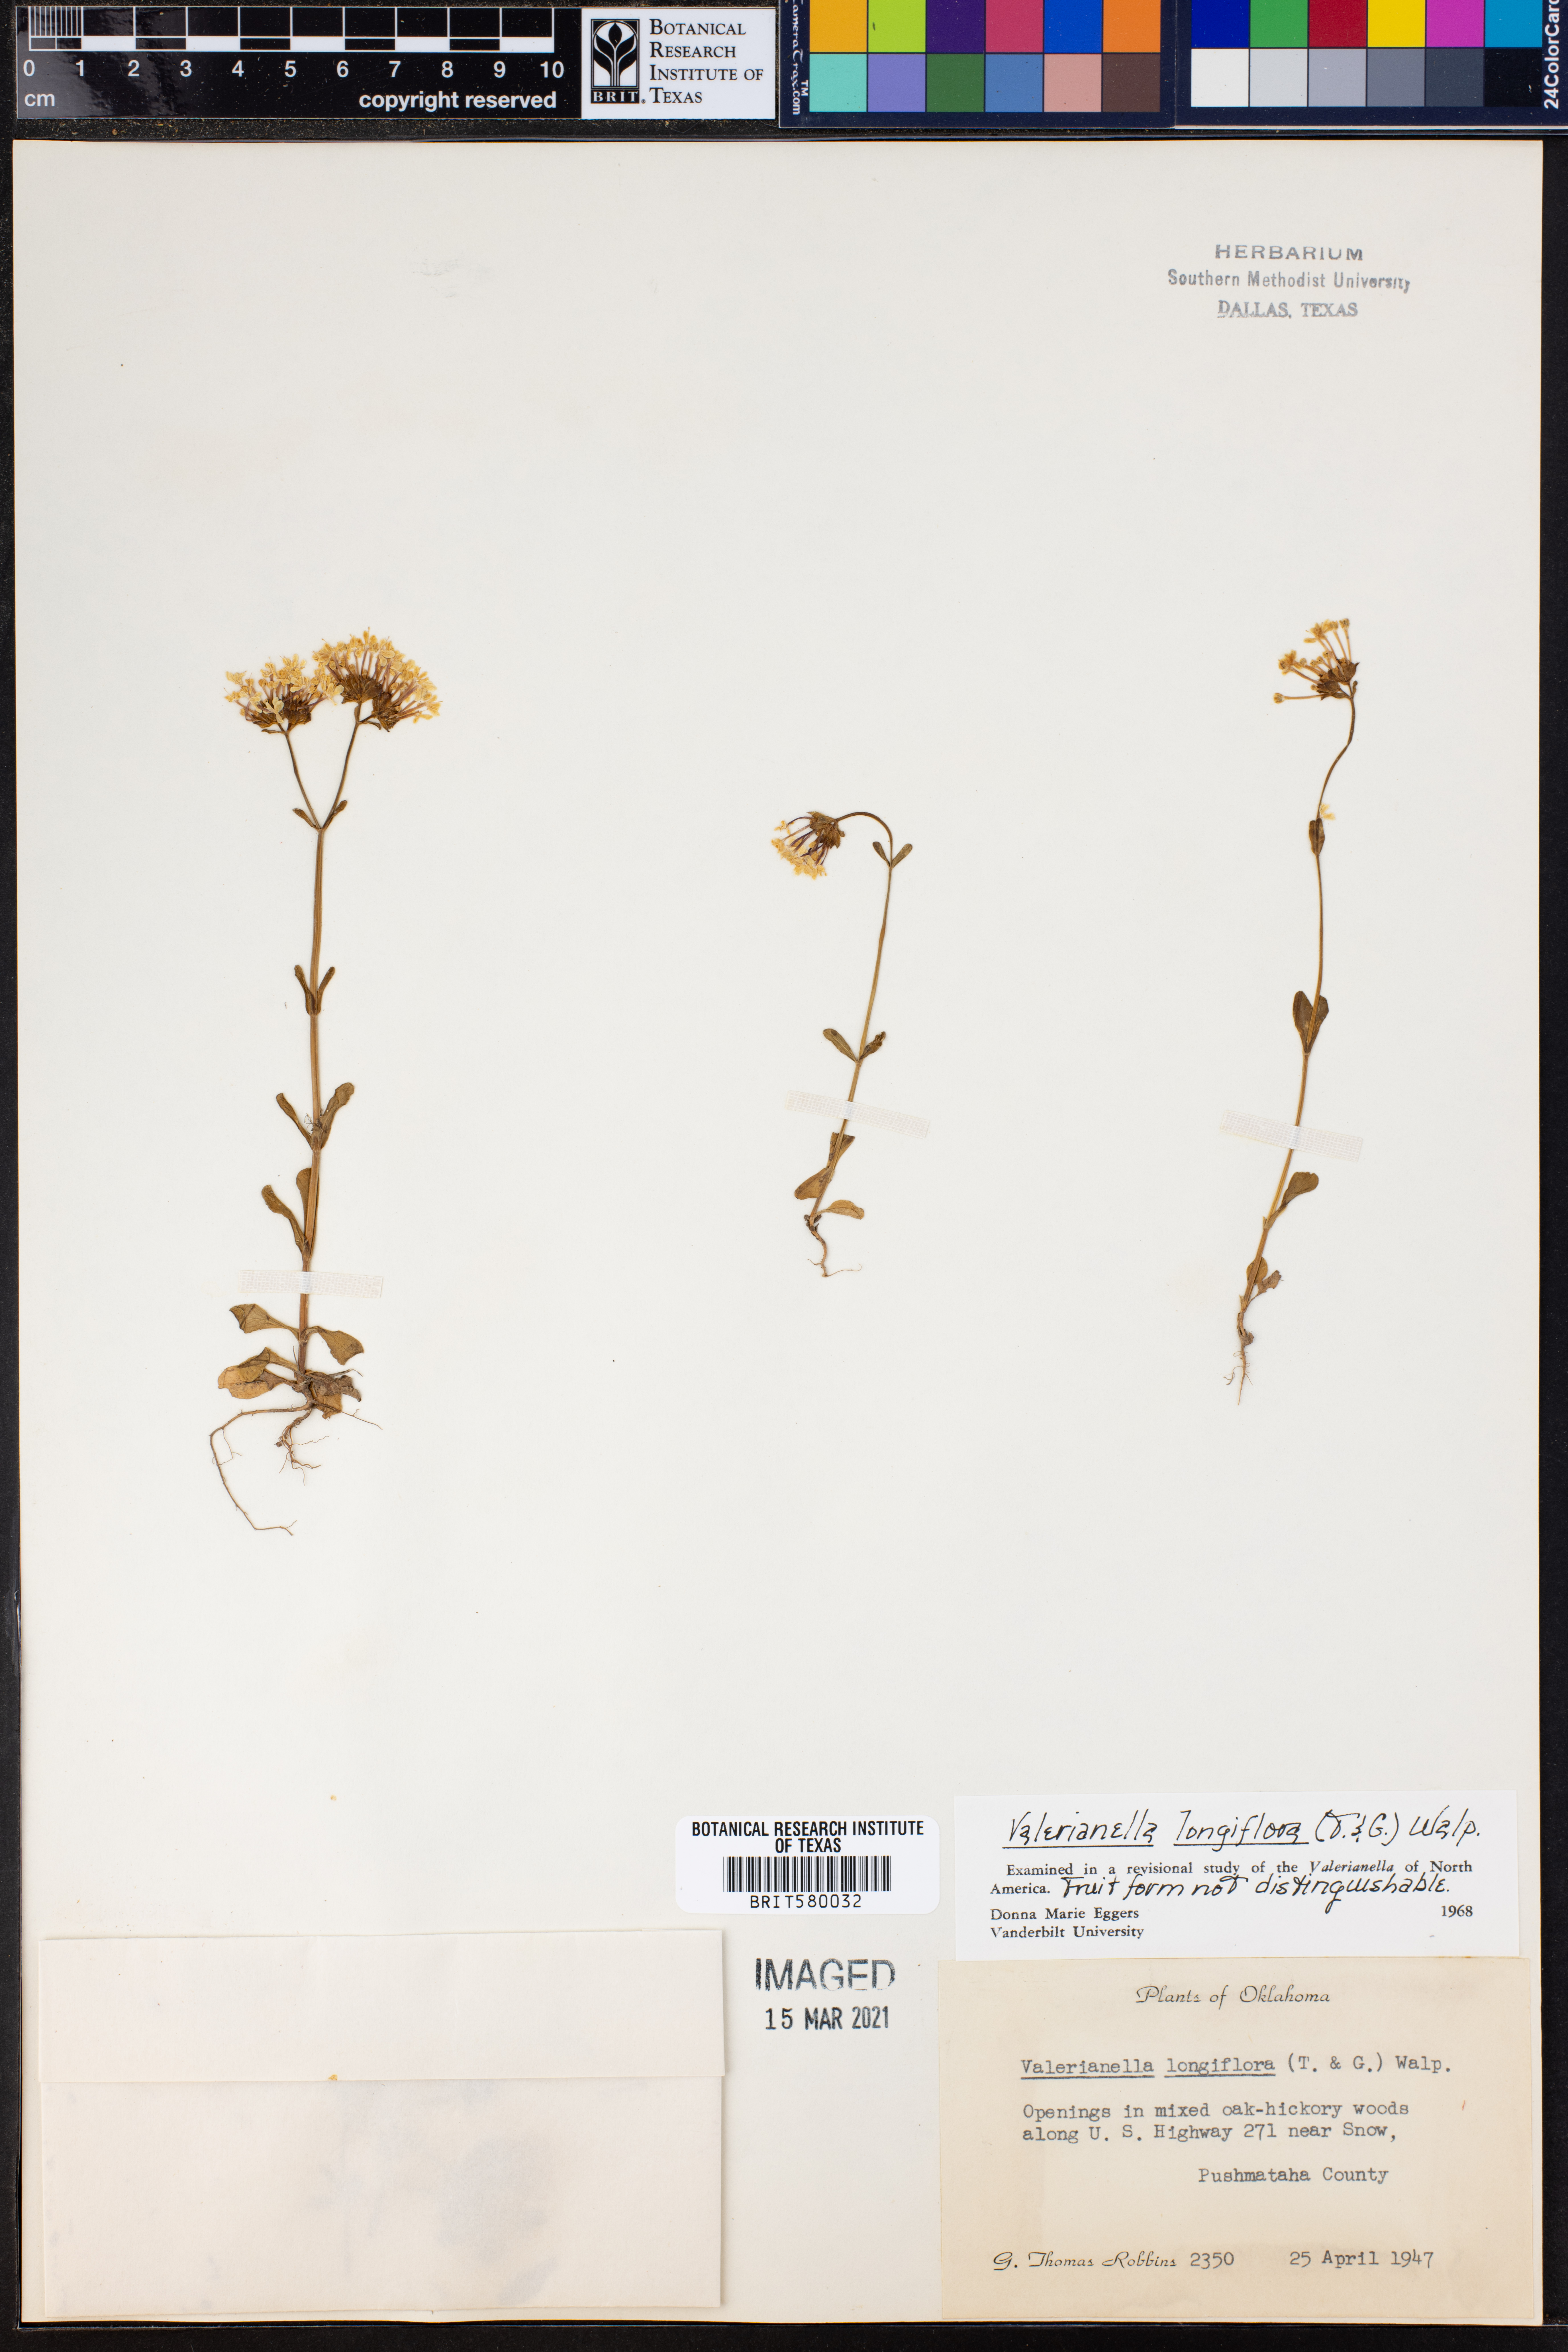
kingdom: Plantae
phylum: Tracheophyta
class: Magnoliopsida
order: Dipsacales
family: Caprifoliaceae
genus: Plectritis
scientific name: Plectritis longiflora
